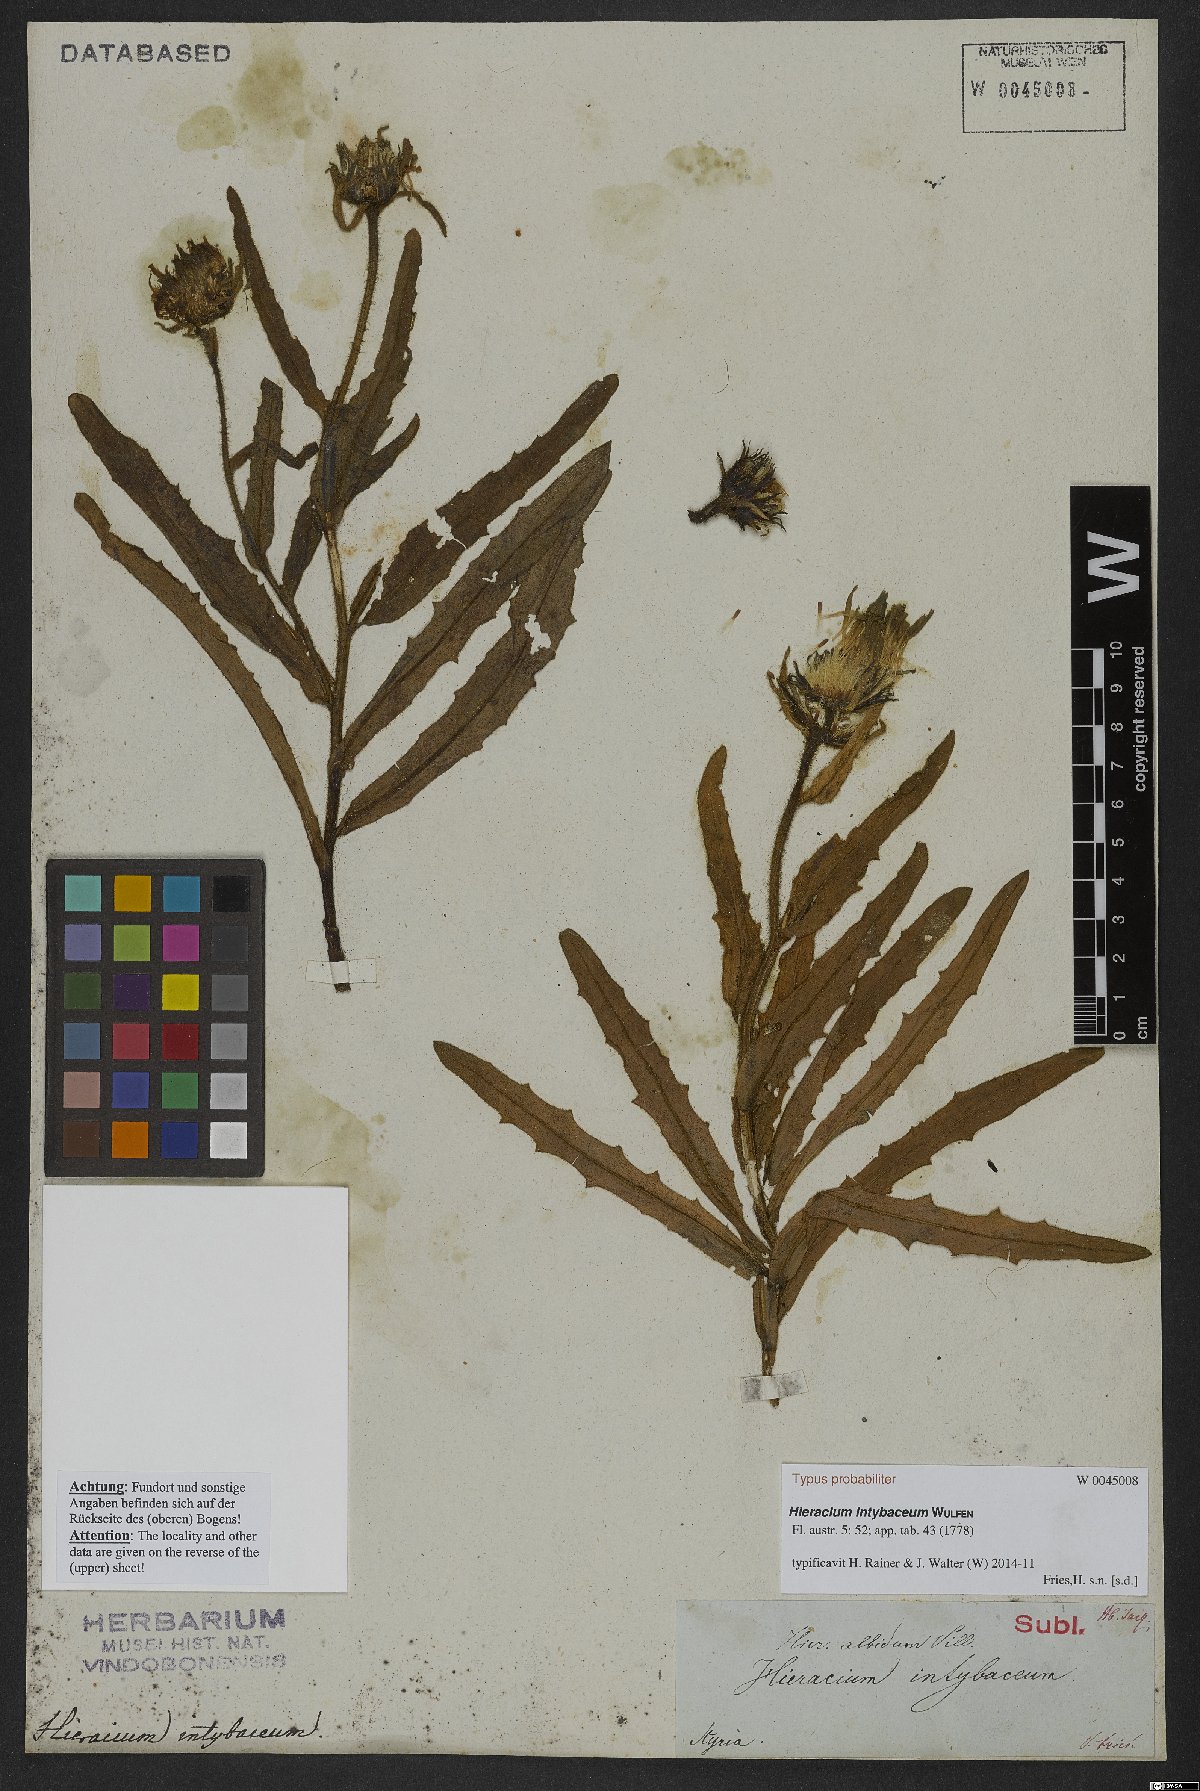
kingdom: Plantae
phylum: Tracheophyta
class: Magnoliopsida
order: Asterales
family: Asteraceae
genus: Schlagintweitia
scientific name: Schlagintweitia intybacea
